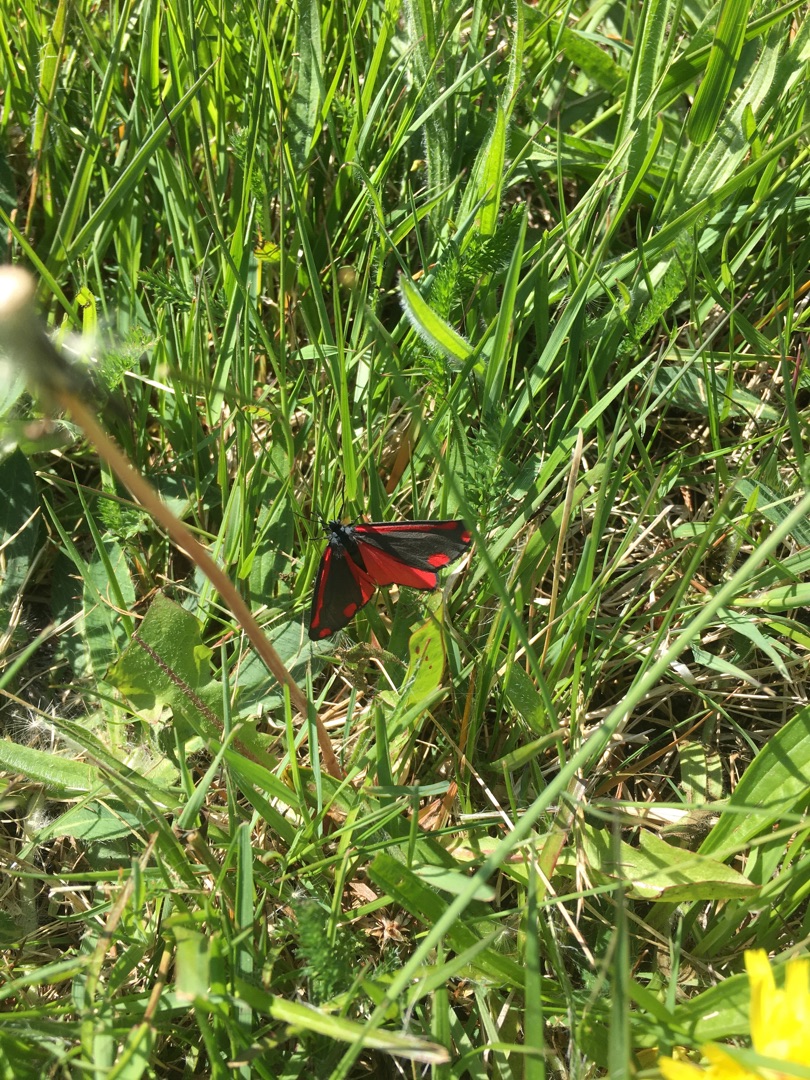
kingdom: Animalia
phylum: Arthropoda
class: Insecta
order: Lepidoptera
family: Erebidae
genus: Tyria
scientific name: Tyria jacobaeae
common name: Blodplet
